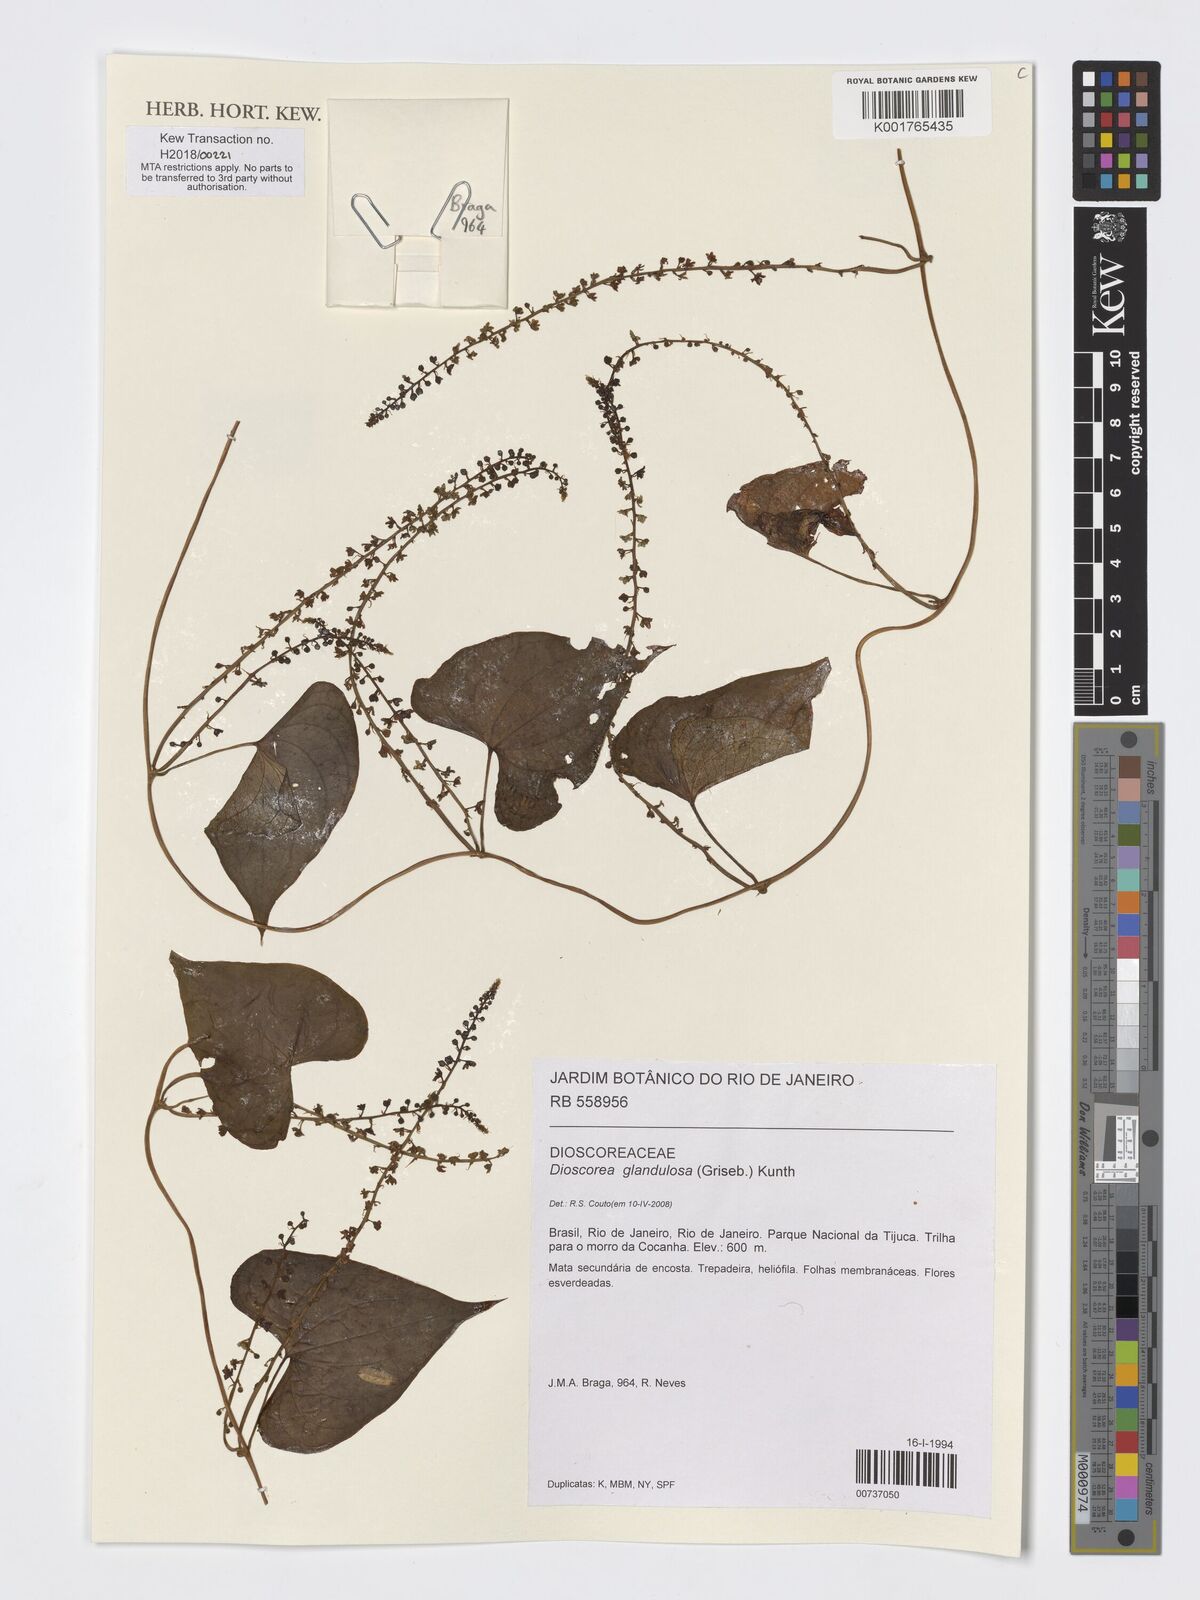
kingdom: Plantae
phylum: Tracheophyta
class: Liliopsida
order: Dioscoreales
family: Dioscoreaceae
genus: Dioscorea
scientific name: Dioscorea glandulosa
